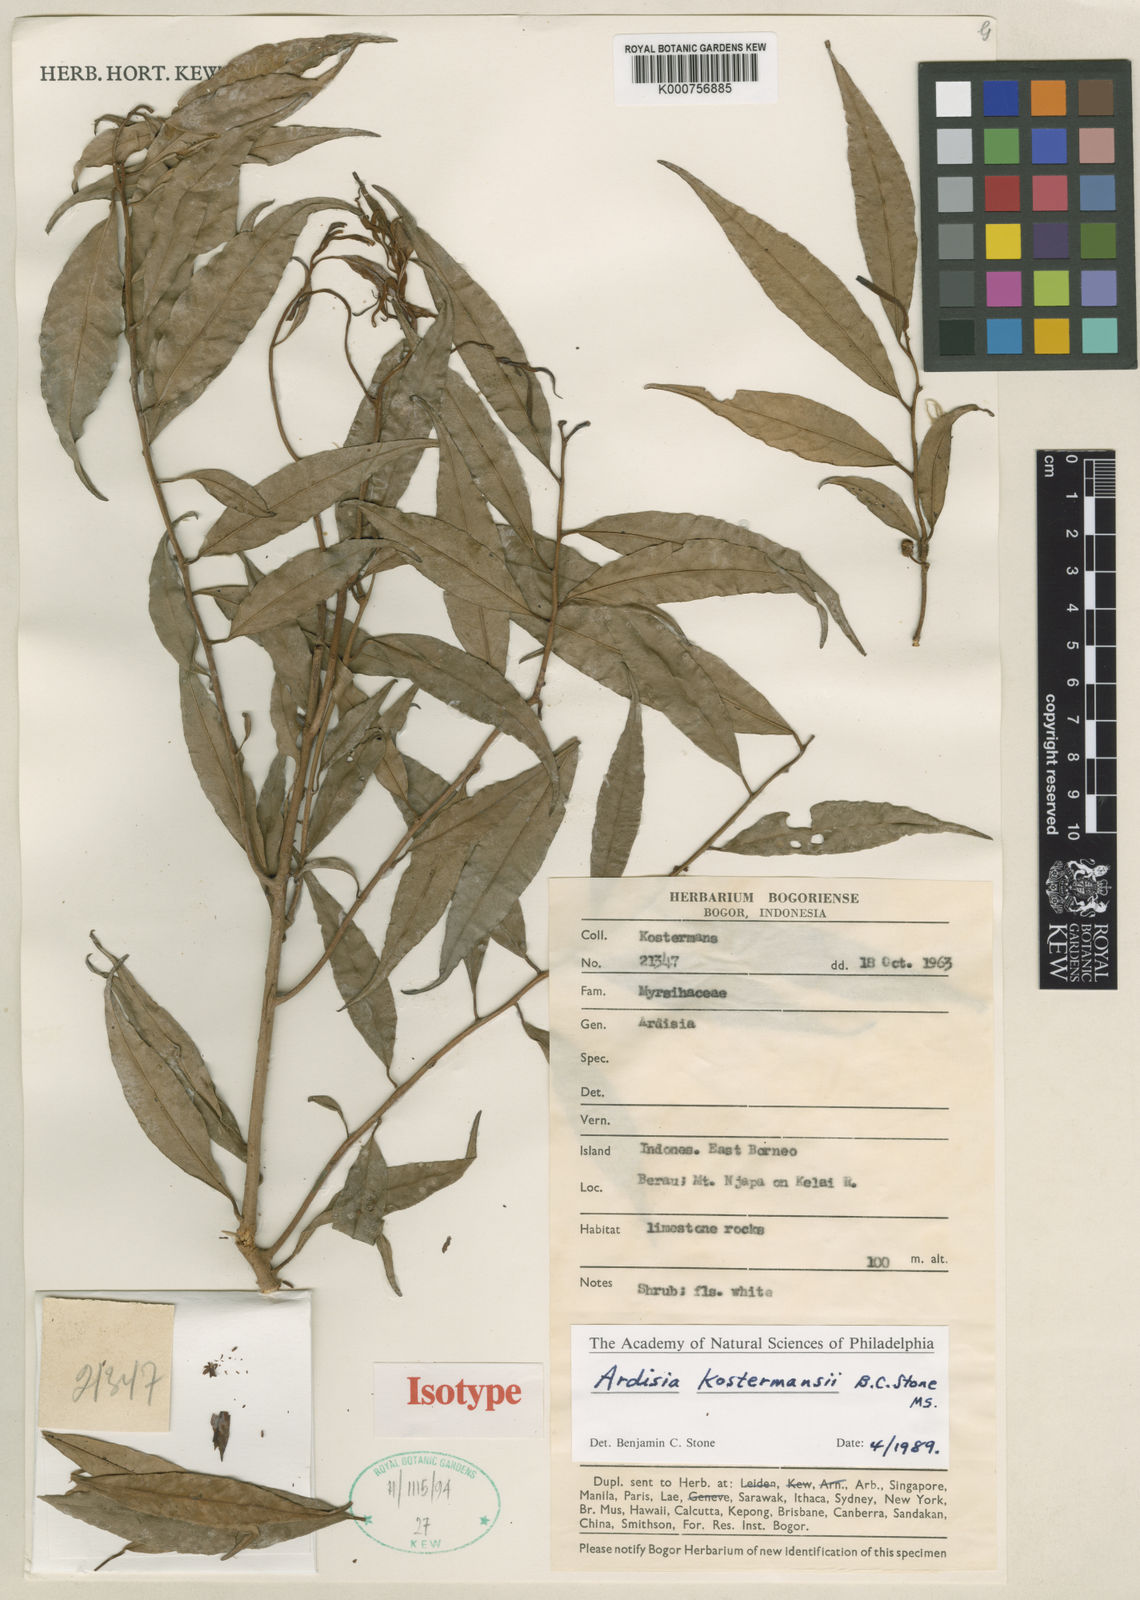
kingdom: Plantae
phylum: Tracheophyta
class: Magnoliopsida
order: Ericales
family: Primulaceae
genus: Ardisia
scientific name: Ardisia kostermansii
